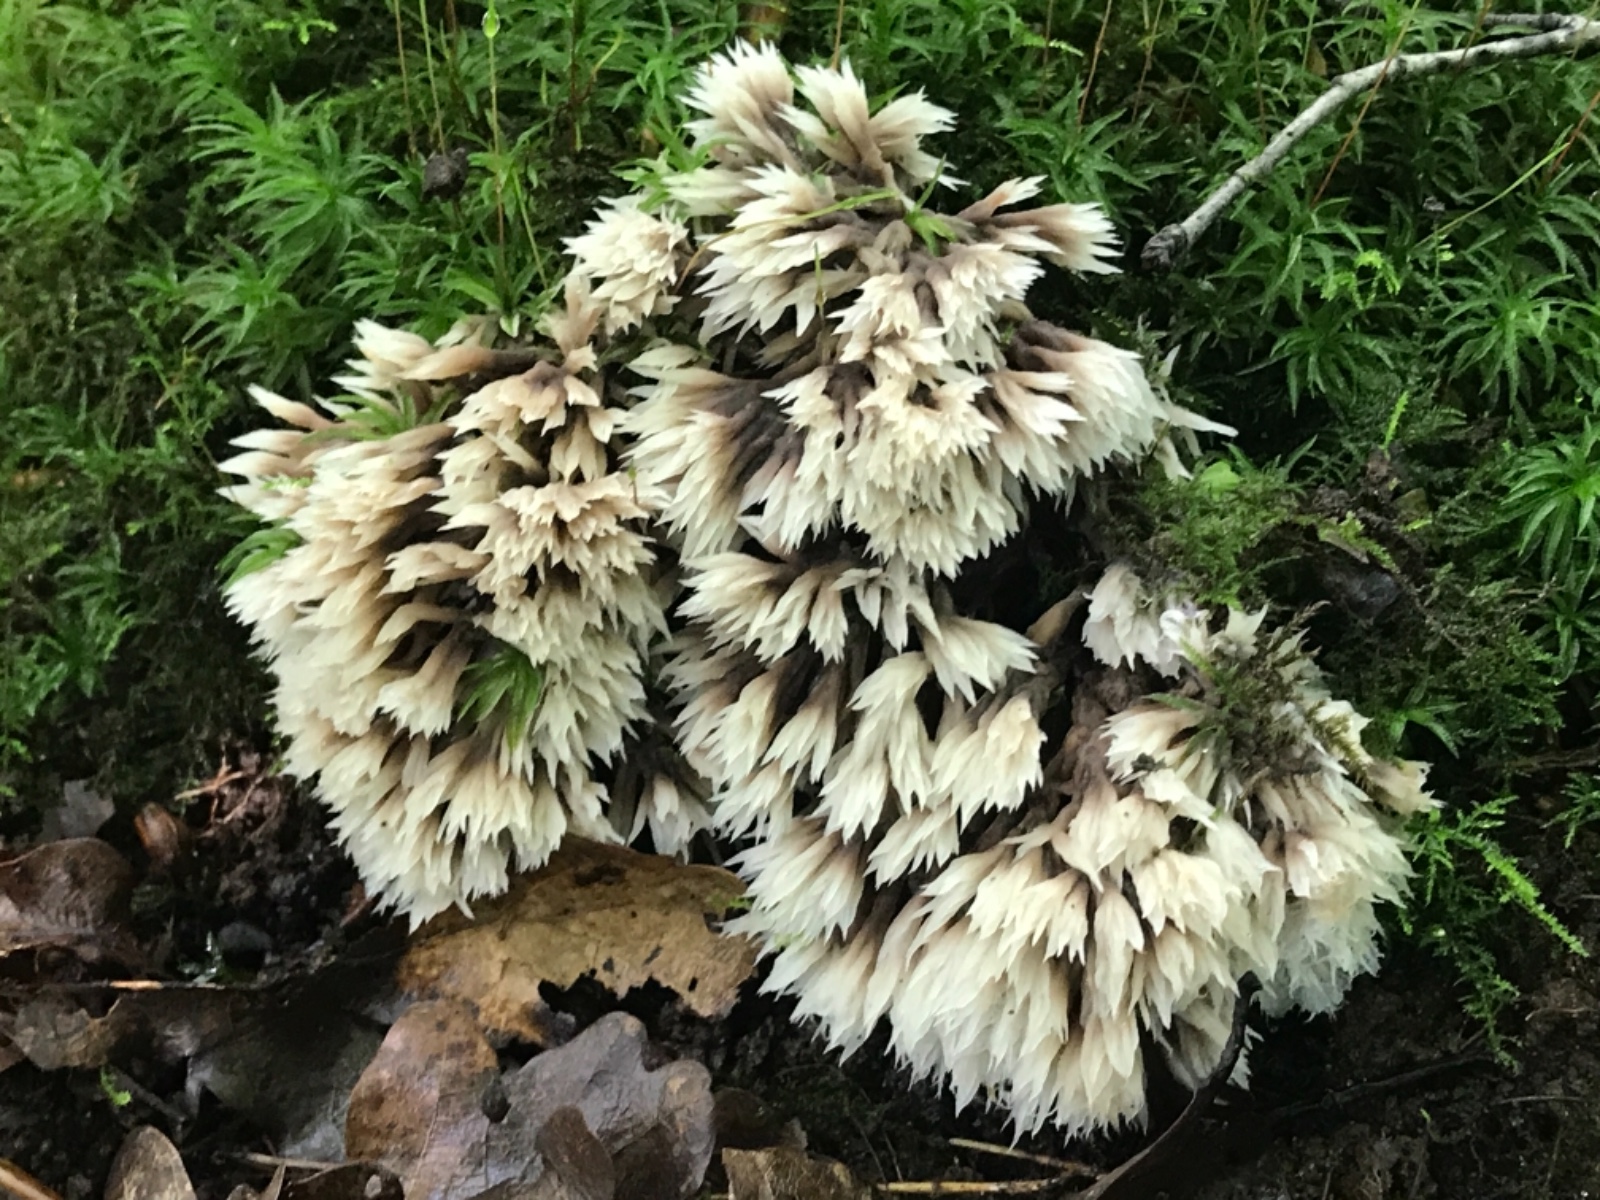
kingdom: Fungi
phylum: Basidiomycota
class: Agaricomycetes
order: Thelephorales
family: Thelephoraceae
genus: Thelephora
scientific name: Thelephora penicillata
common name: fladtrådt frynsesvamp
